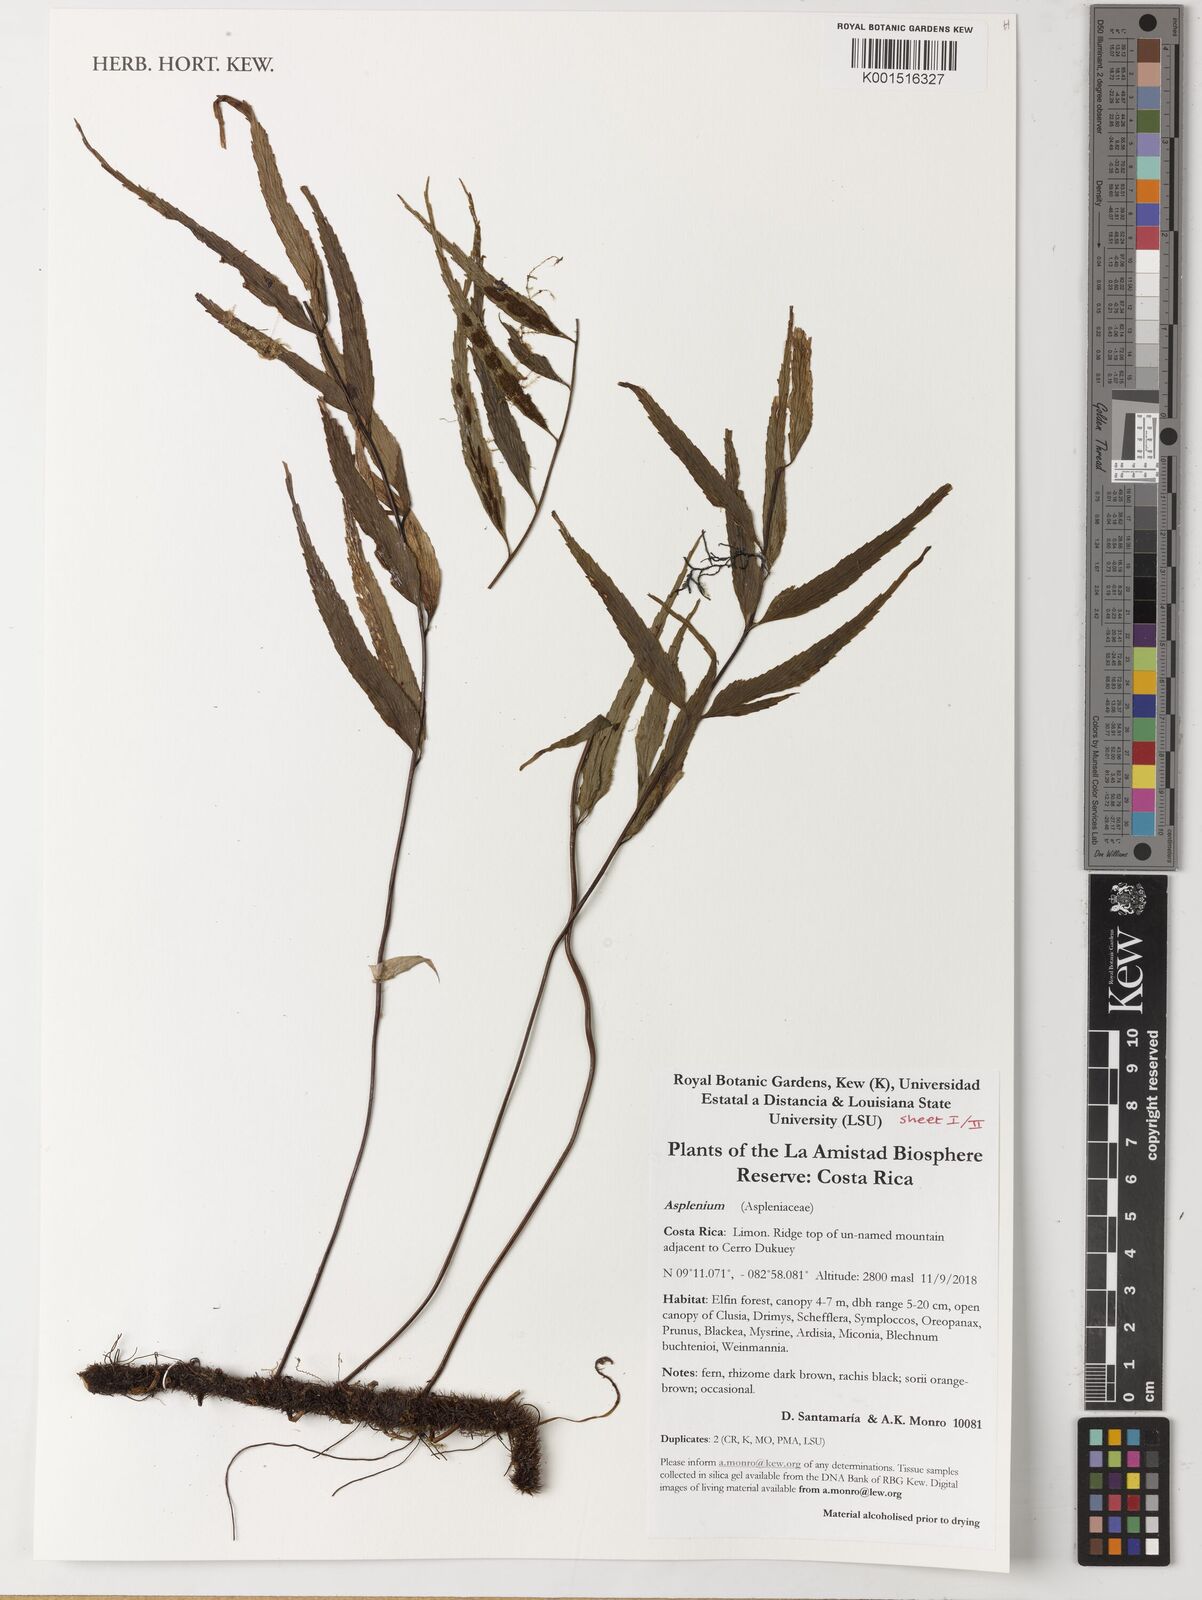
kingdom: Plantae
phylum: Tracheophyta
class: Polypodiopsida
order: Polypodiales
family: Aspleniaceae
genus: Asplenium
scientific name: Asplenium
